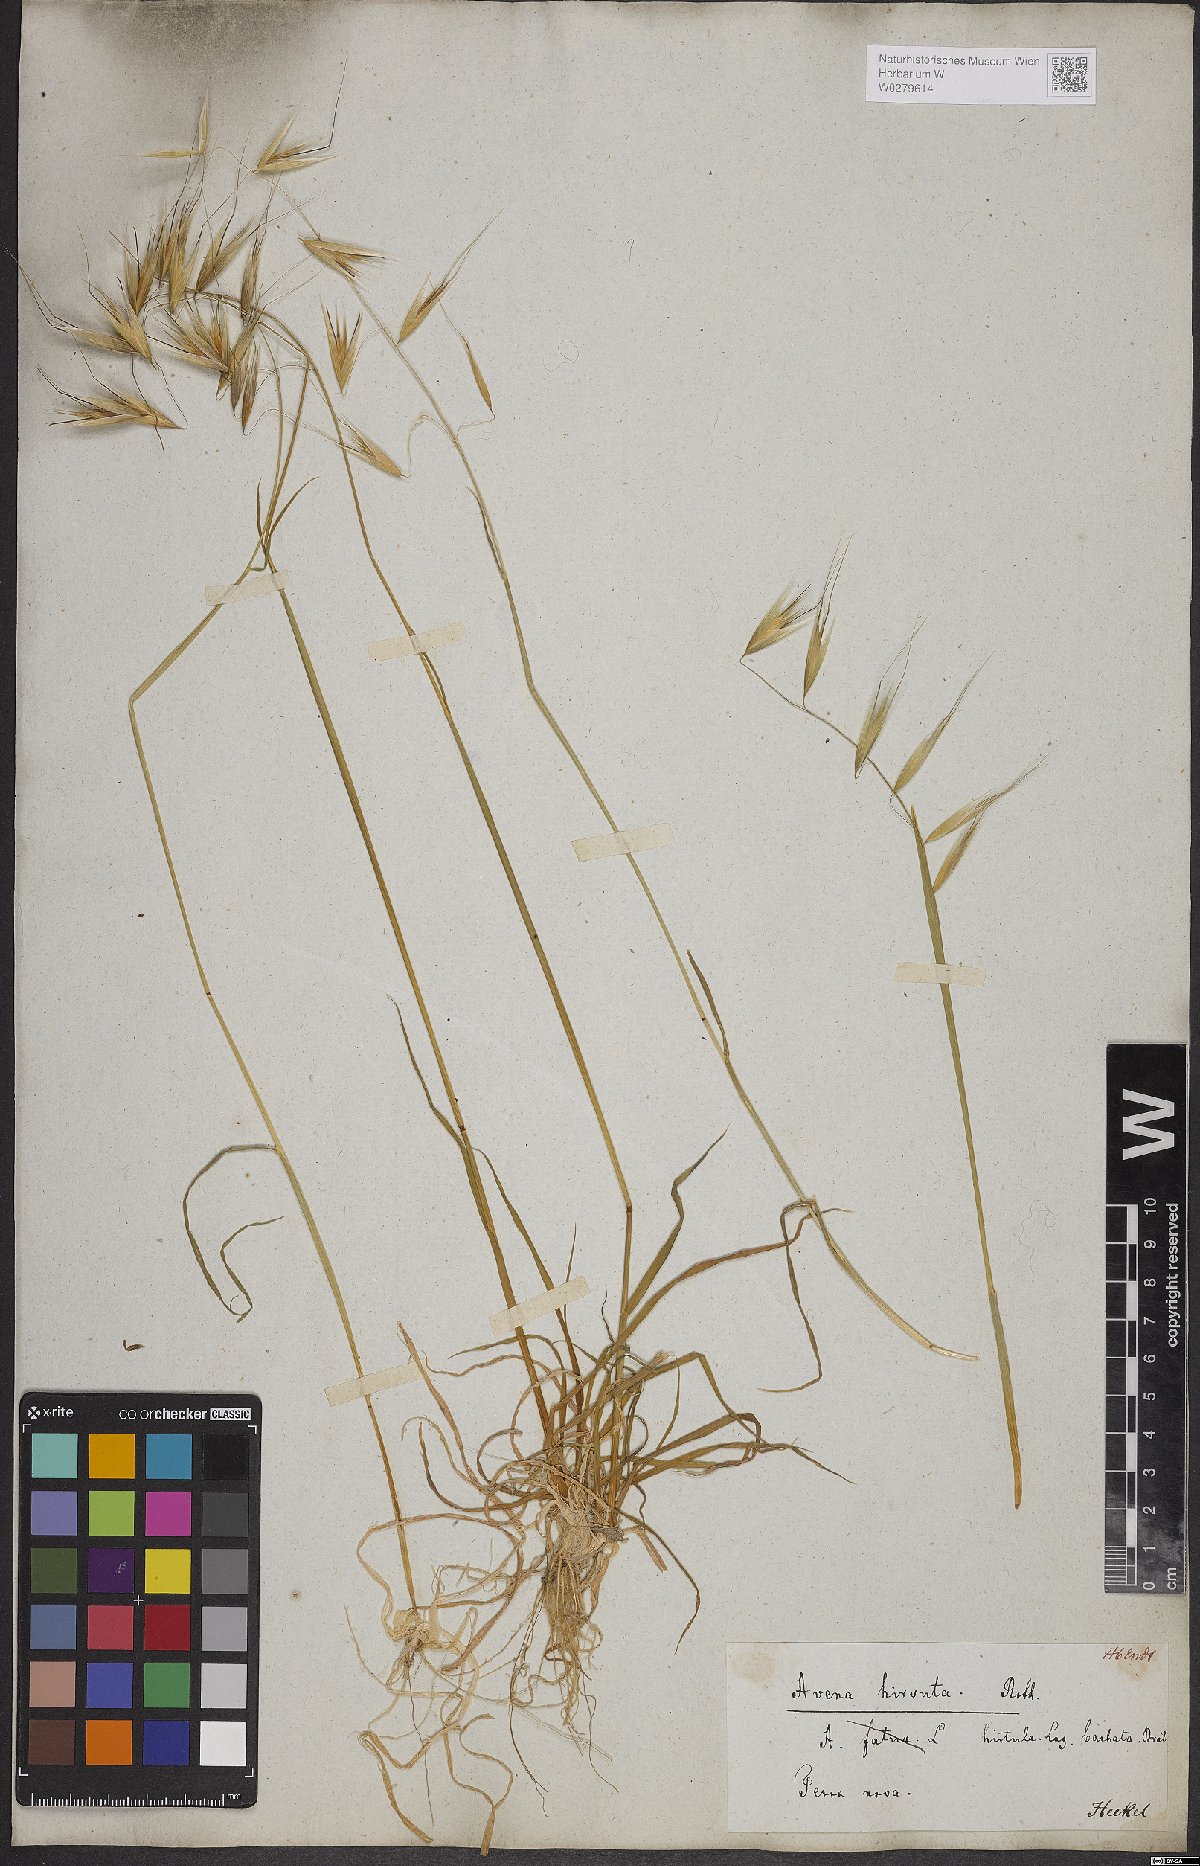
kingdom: Plantae
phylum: Tracheophyta
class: Liliopsida
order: Poales
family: Poaceae
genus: Avena
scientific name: Avena barbata
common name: Slender oat
